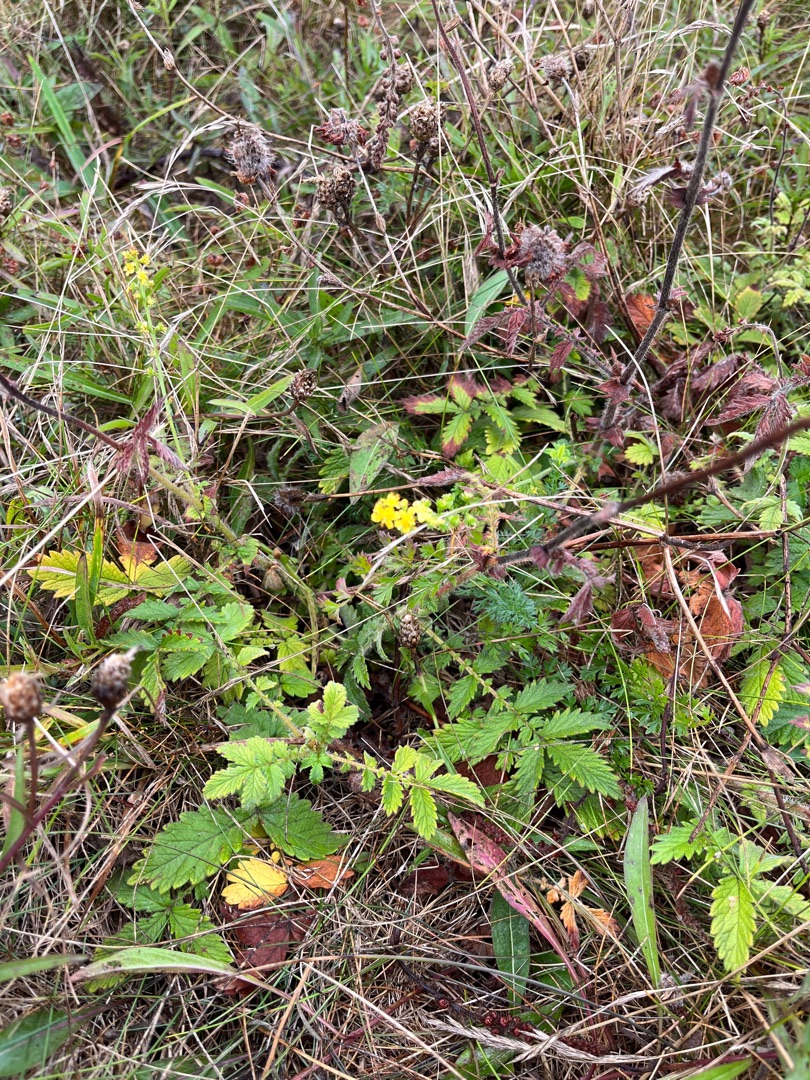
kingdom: Plantae
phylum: Tracheophyta
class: Magnoliopsida
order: Rosales
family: Rosaceae
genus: Agrimonia
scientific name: Agrimonia eupatoria
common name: Almindelig agermåne
